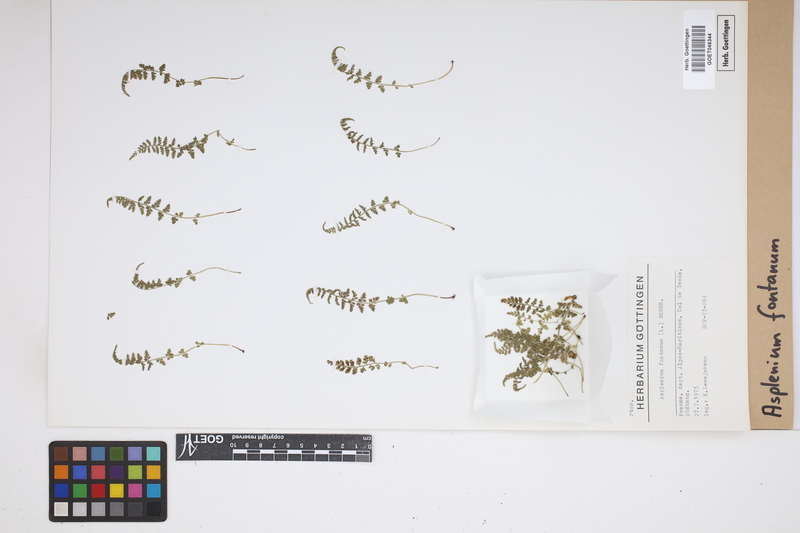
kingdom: Plantae
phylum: Tracheophyta
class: Polypodiopsida
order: Polypodiales
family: Aspleniaceae
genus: Asplenium
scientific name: Asplenium fontanum
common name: Fountain spleenwort
